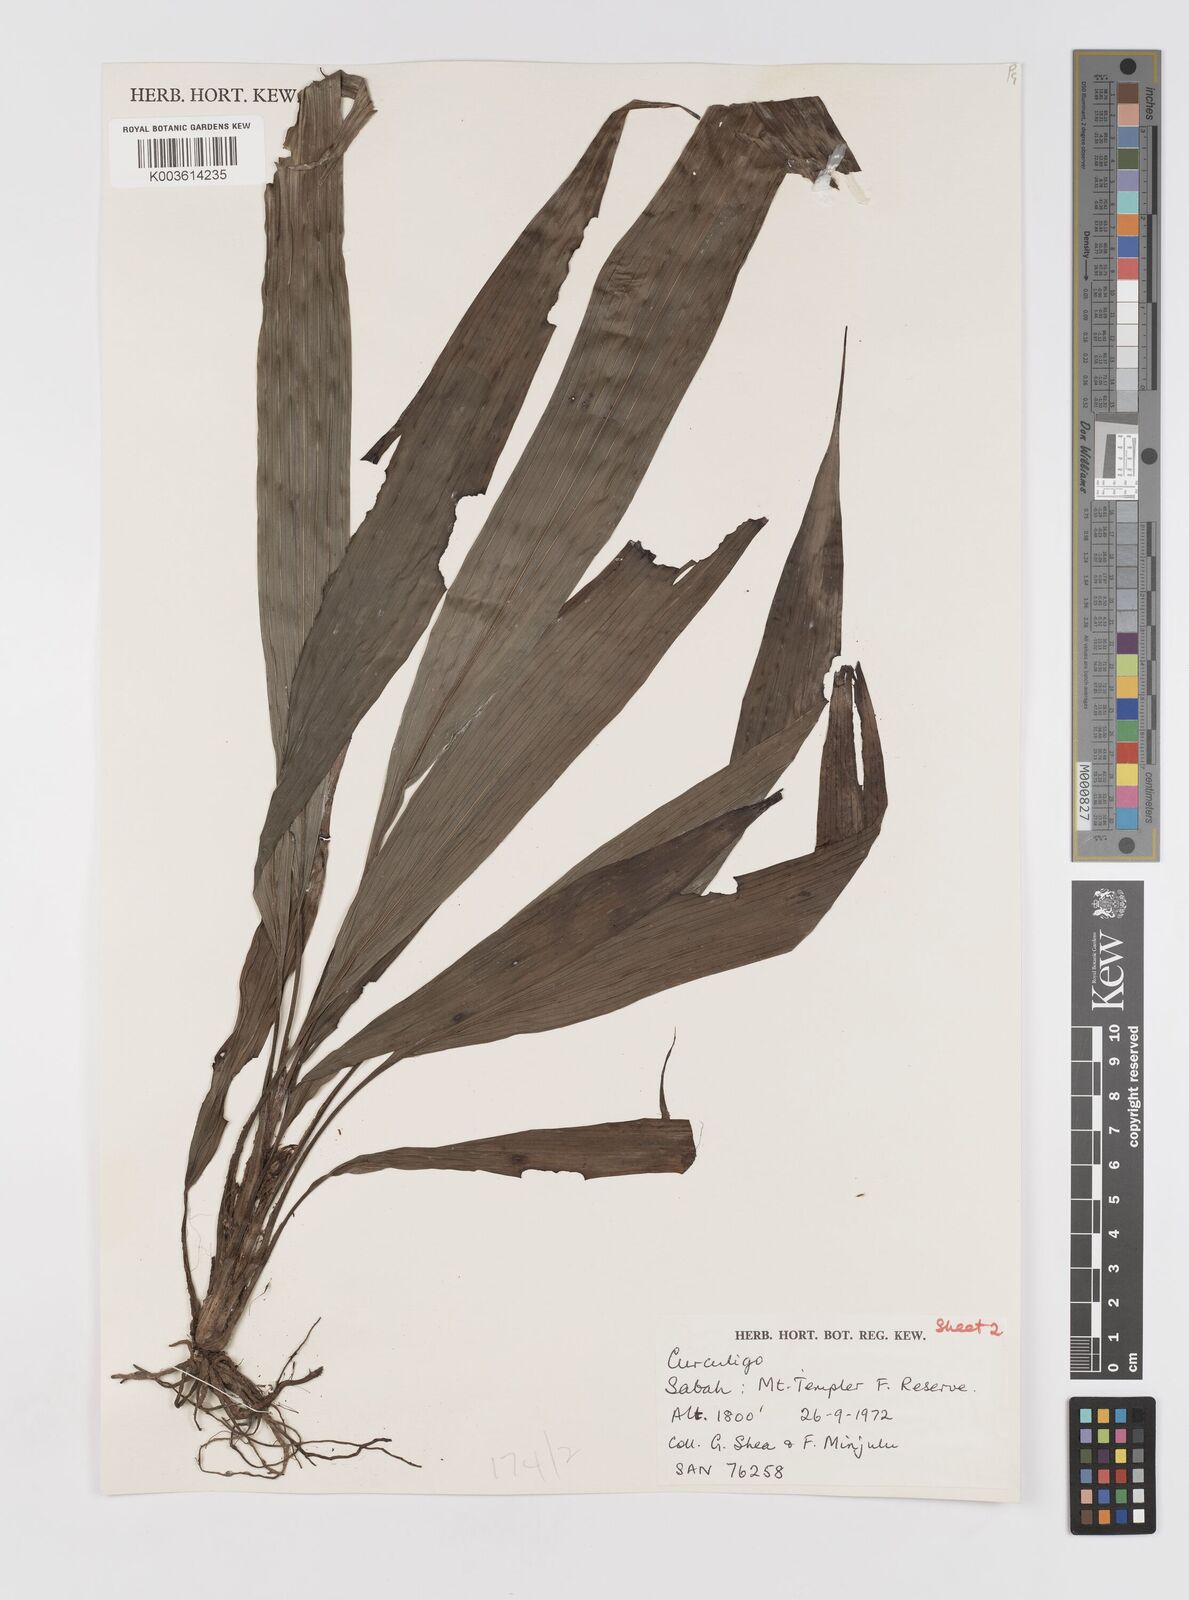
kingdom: Plantae
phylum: Tracheophyta
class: Liliopsida
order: Asparagales
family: Hypoxidaceae
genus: Curculigo
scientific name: Curculigo
